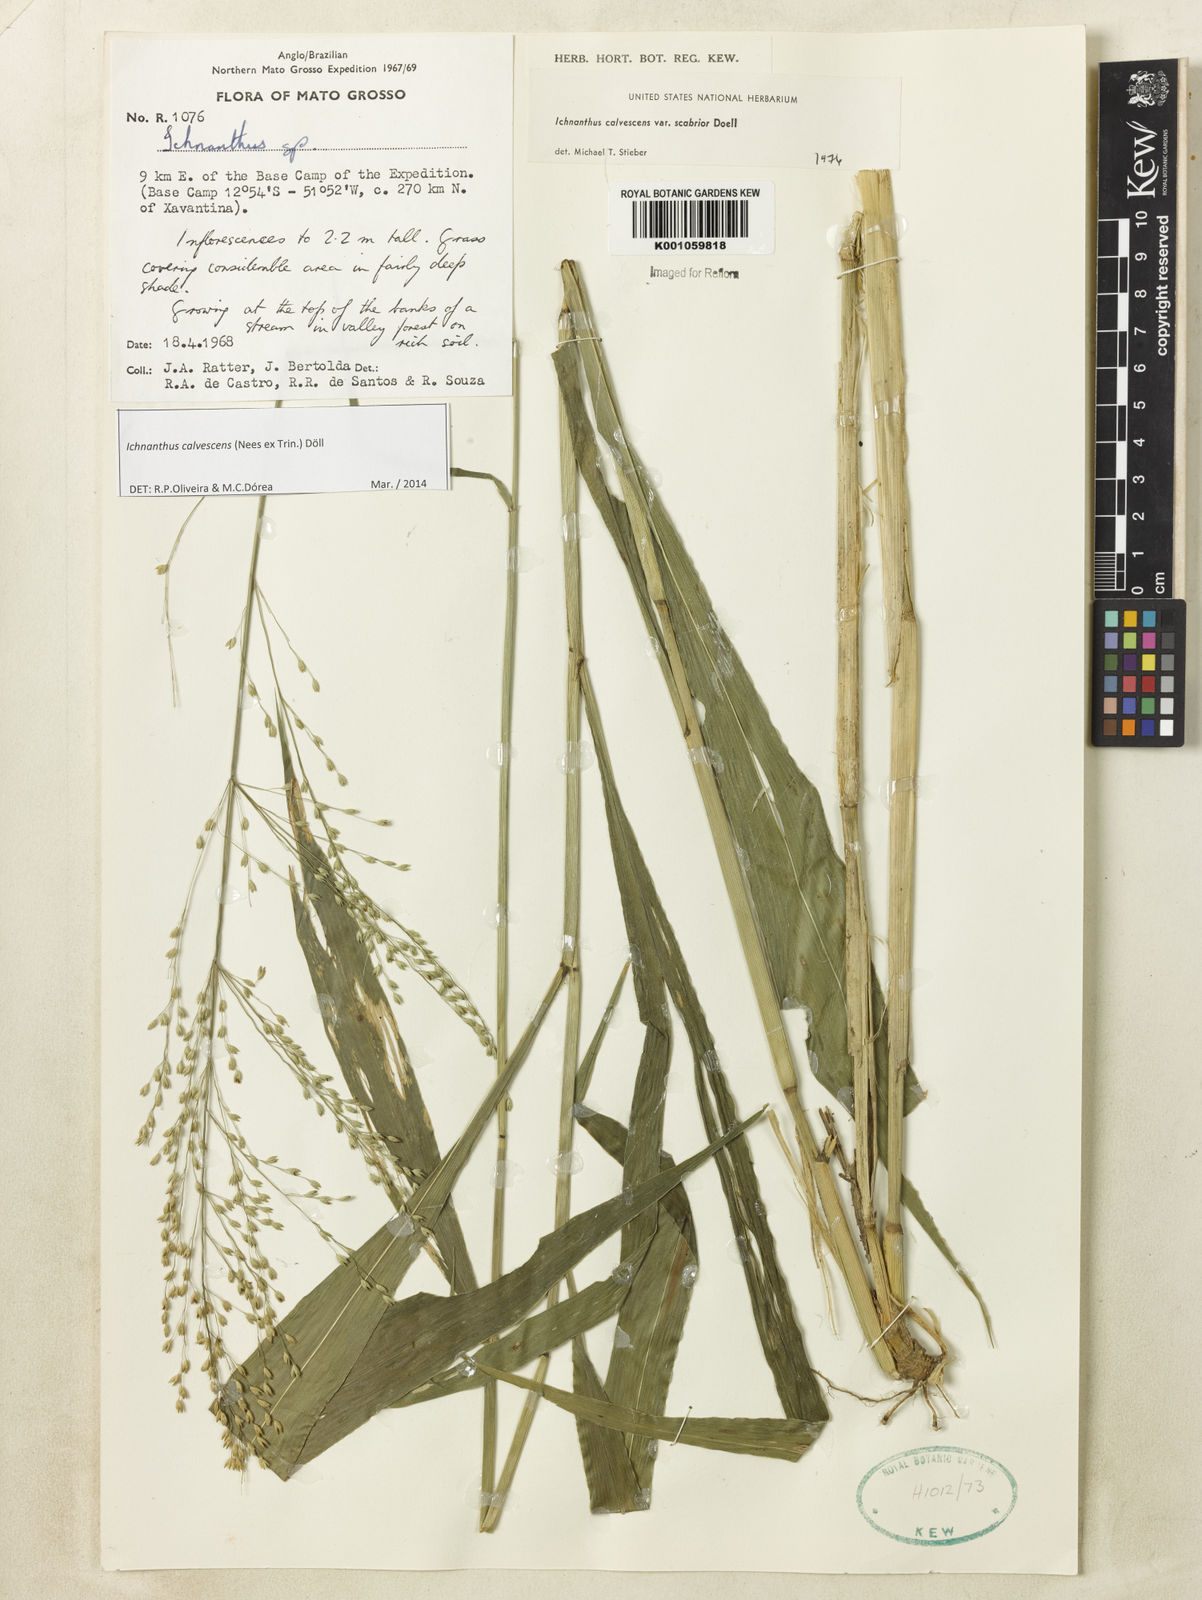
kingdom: Plantae
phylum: Tracheophyta
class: Liliopsida
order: Poales
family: Poaceae
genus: Ichnanthus
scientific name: Ichnanthus
